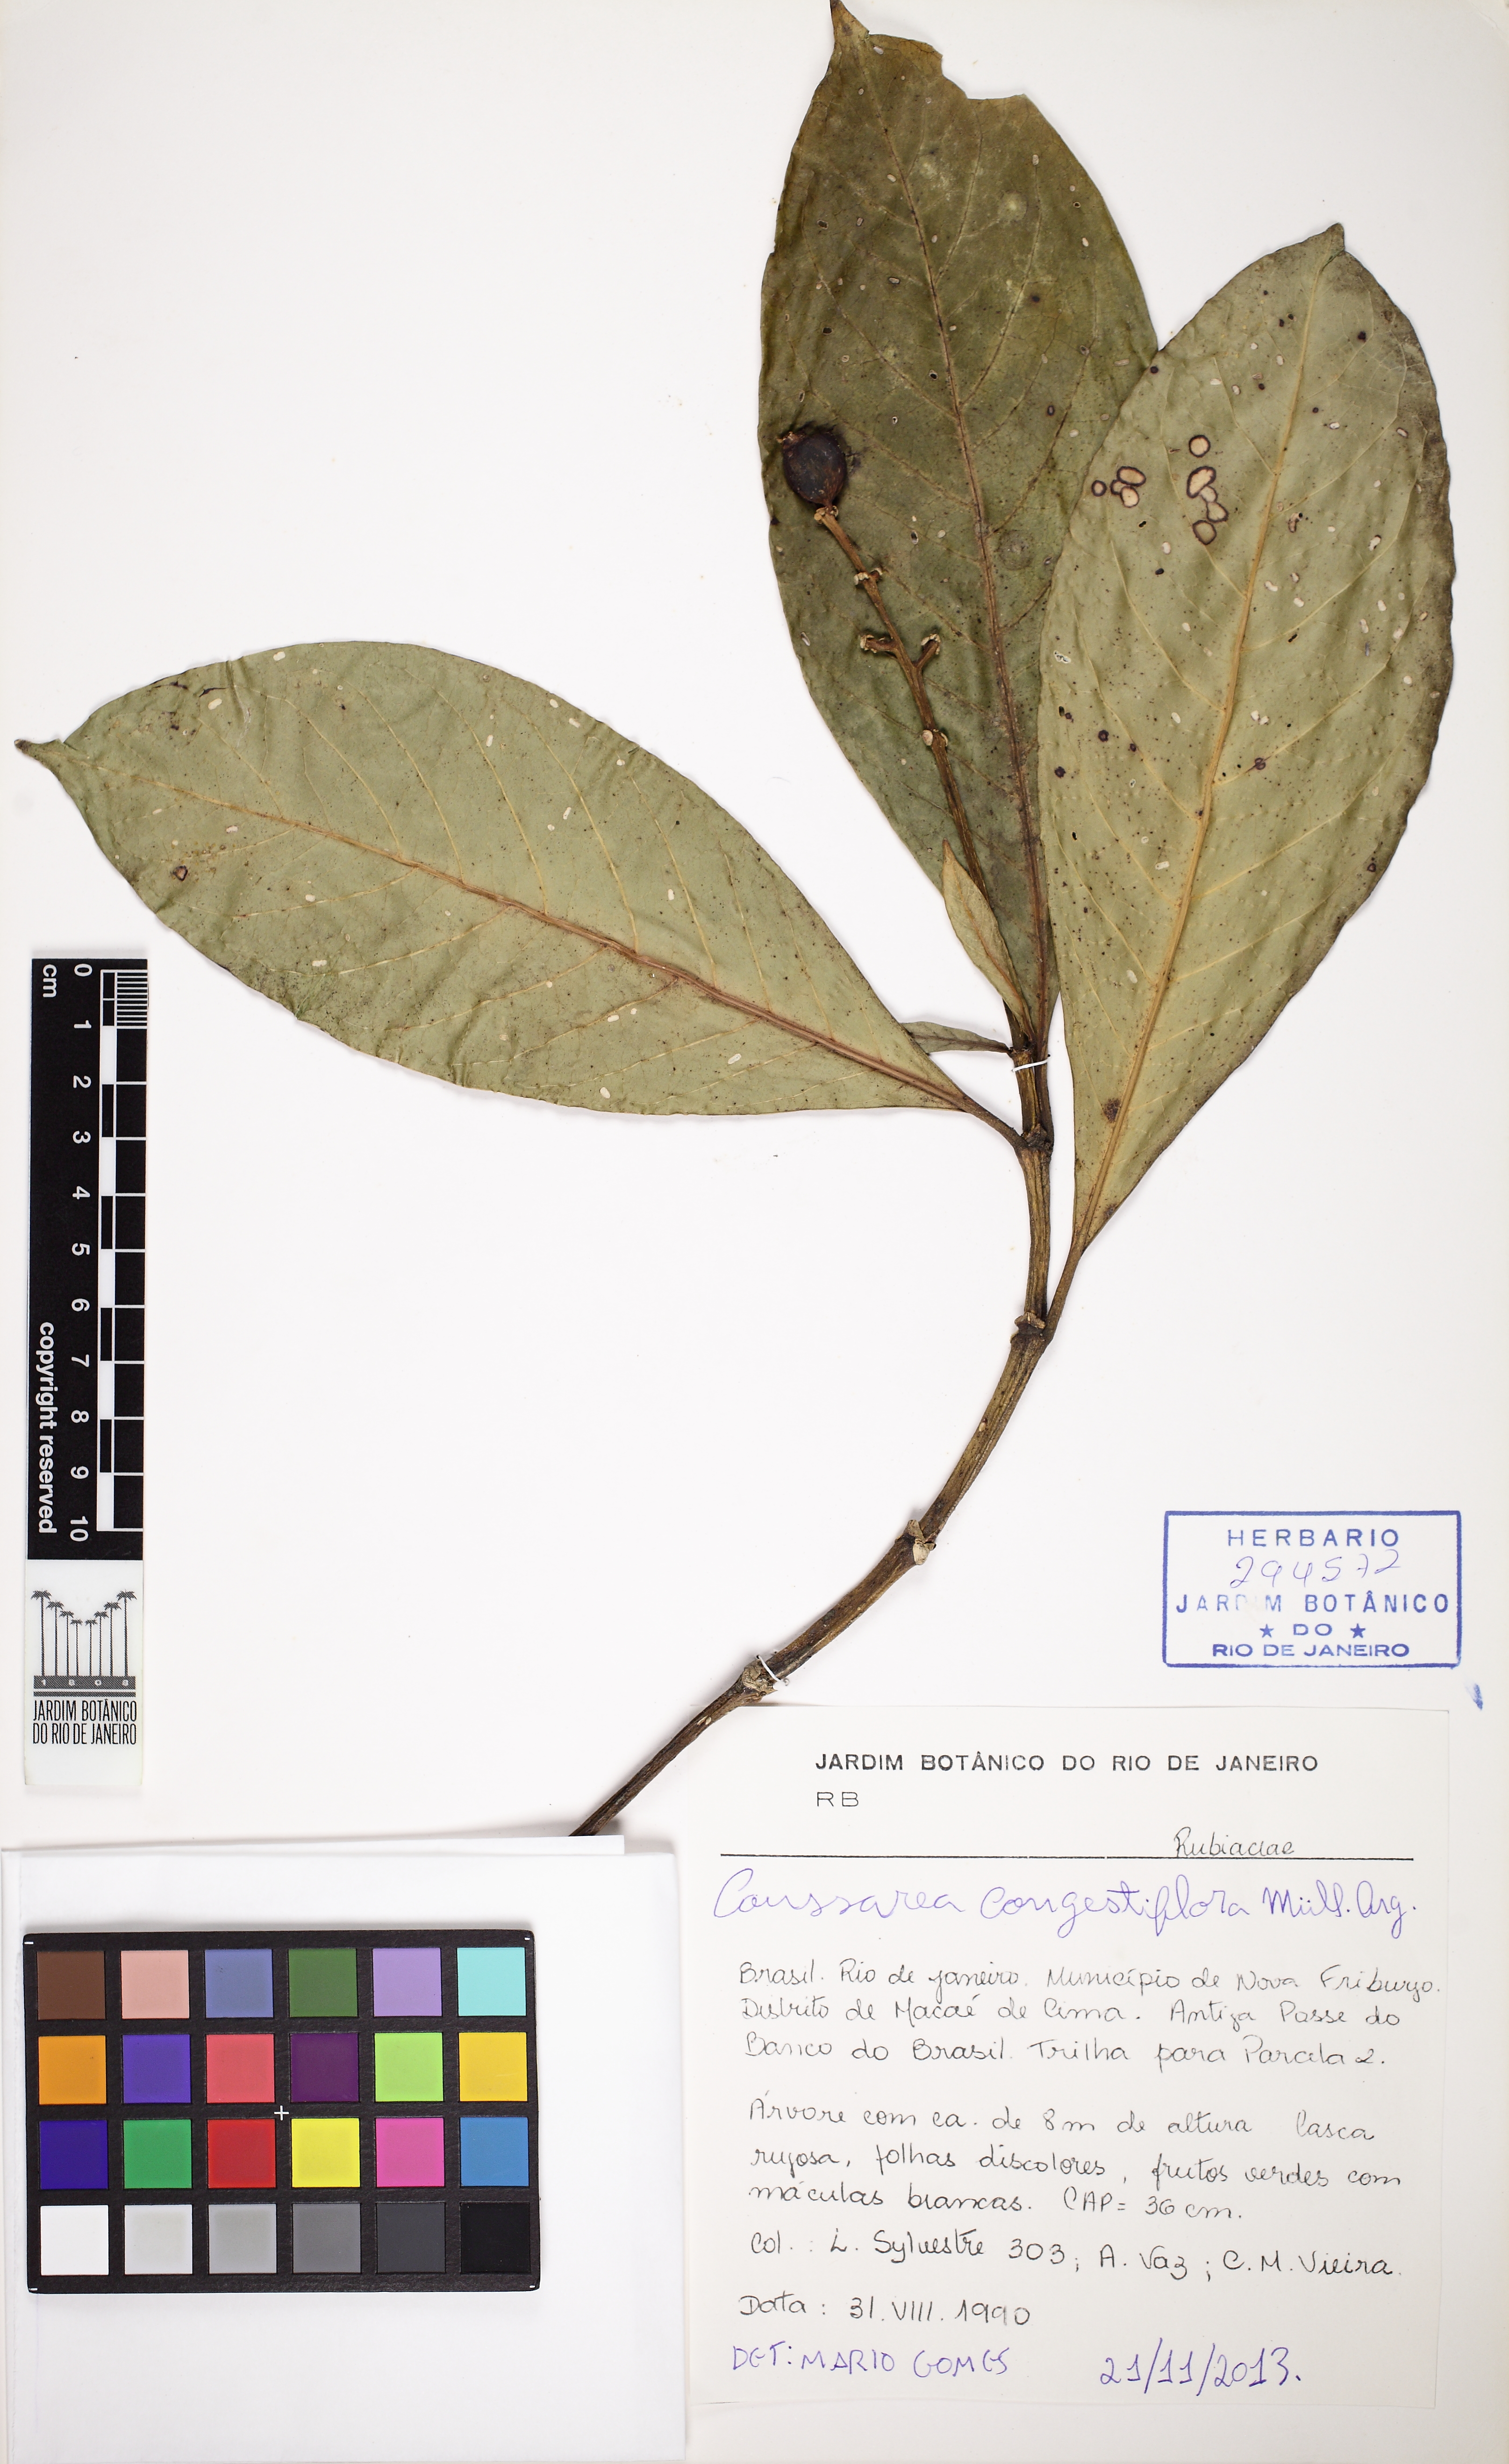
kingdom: Plantae
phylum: Tracheophyta
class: Magnoliopsida
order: Gentianales
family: Rubiaceae
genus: Coussarea
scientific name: Coussarea congestiflora
